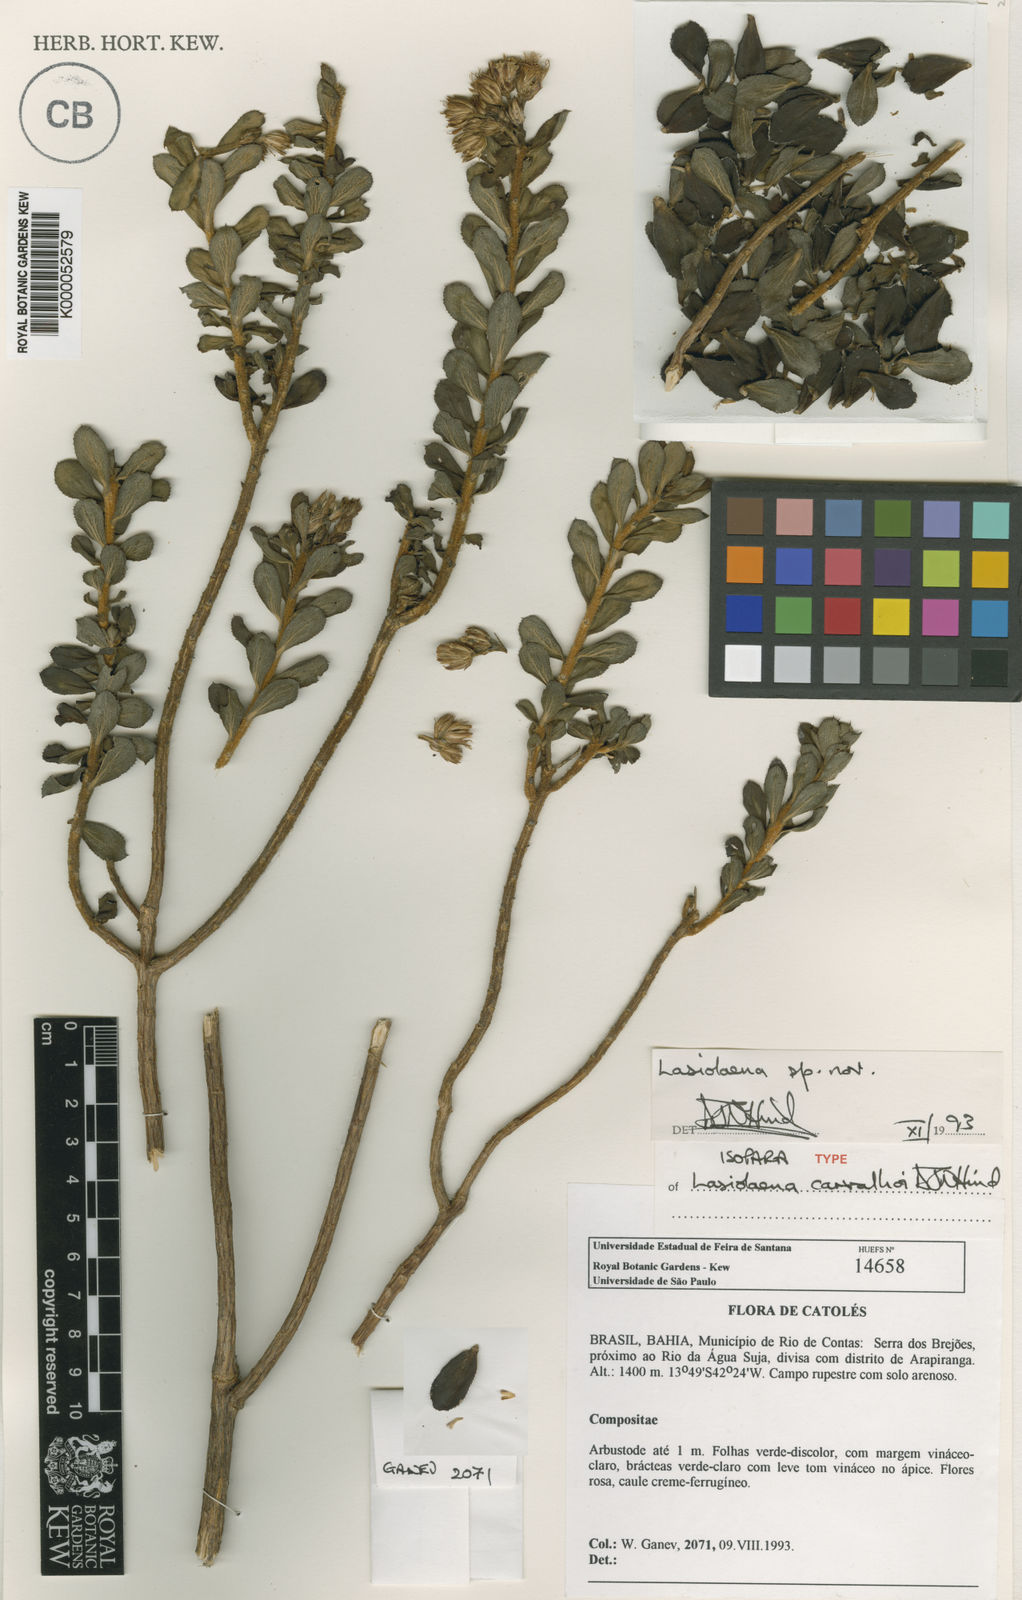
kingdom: Plantae
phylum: Tracheophyta
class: Magnoliopsida
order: Asterales
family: Asteraceae
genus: Lasiolaena
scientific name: Lasiolaena carvalhoi
